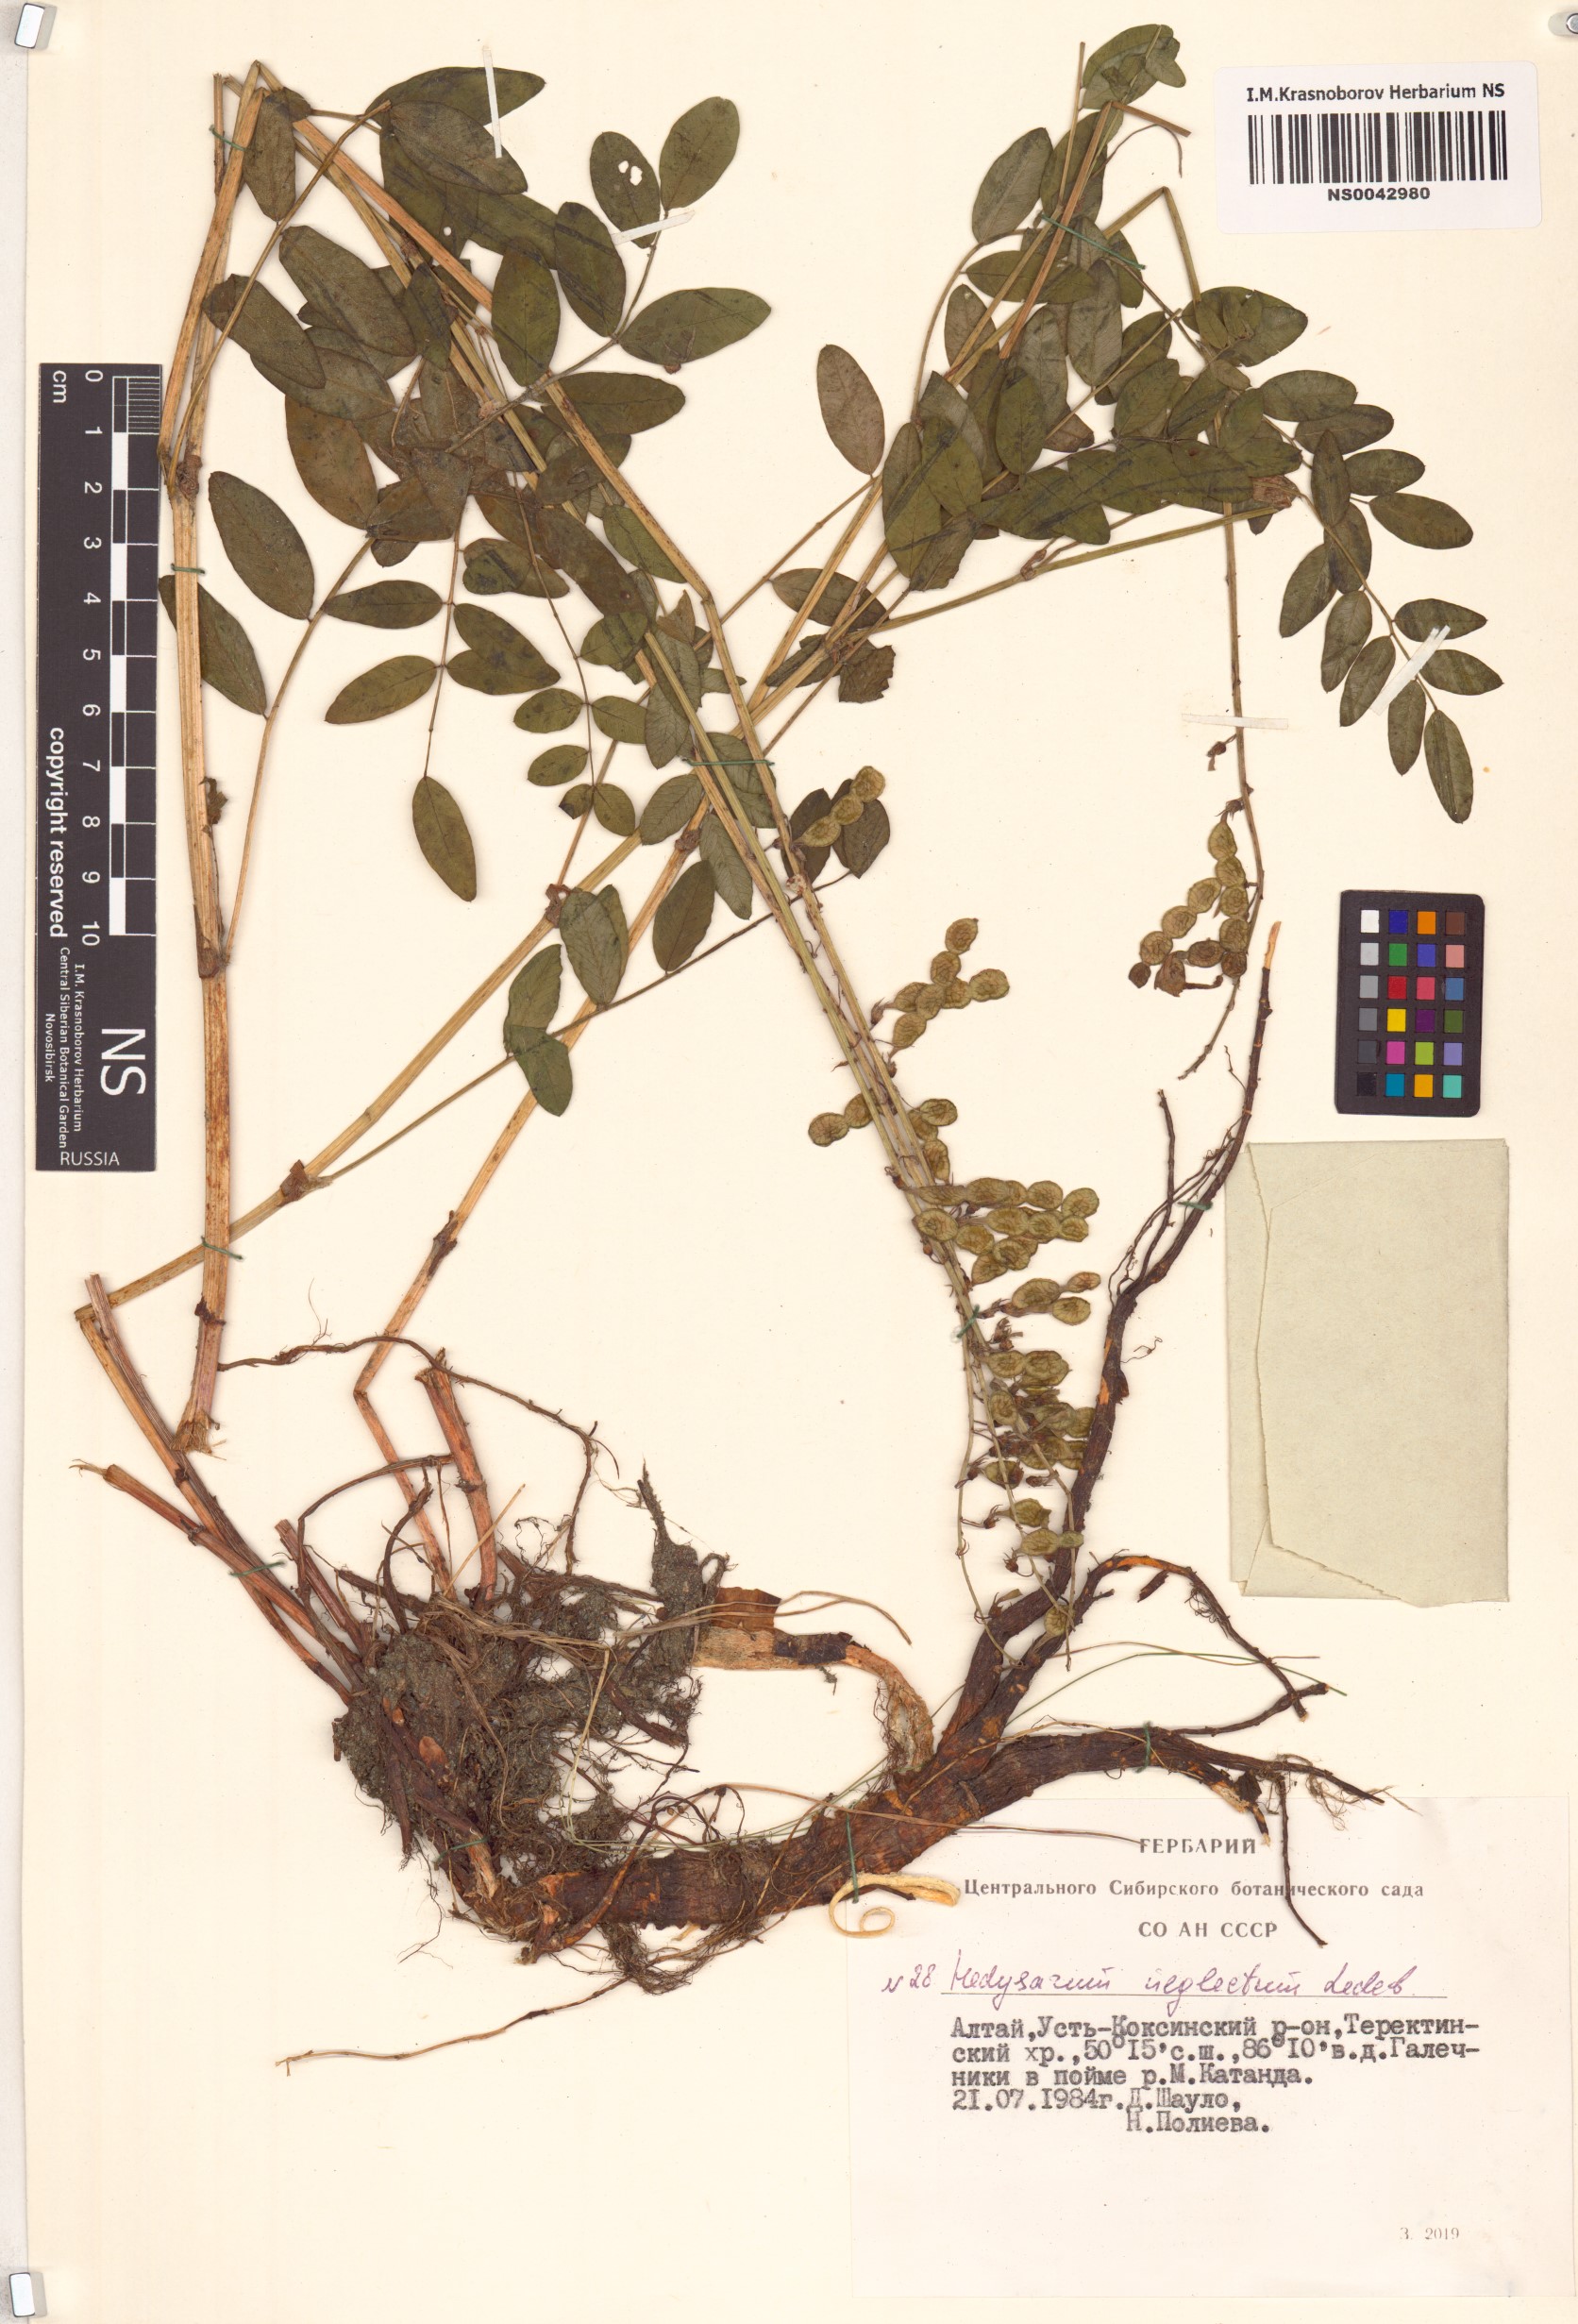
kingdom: Plantae
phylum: Tracheophyta
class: Magnoliopsida
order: Fabales
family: Fabaceae
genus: Hedysarum
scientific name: Hedysarum neglectum
